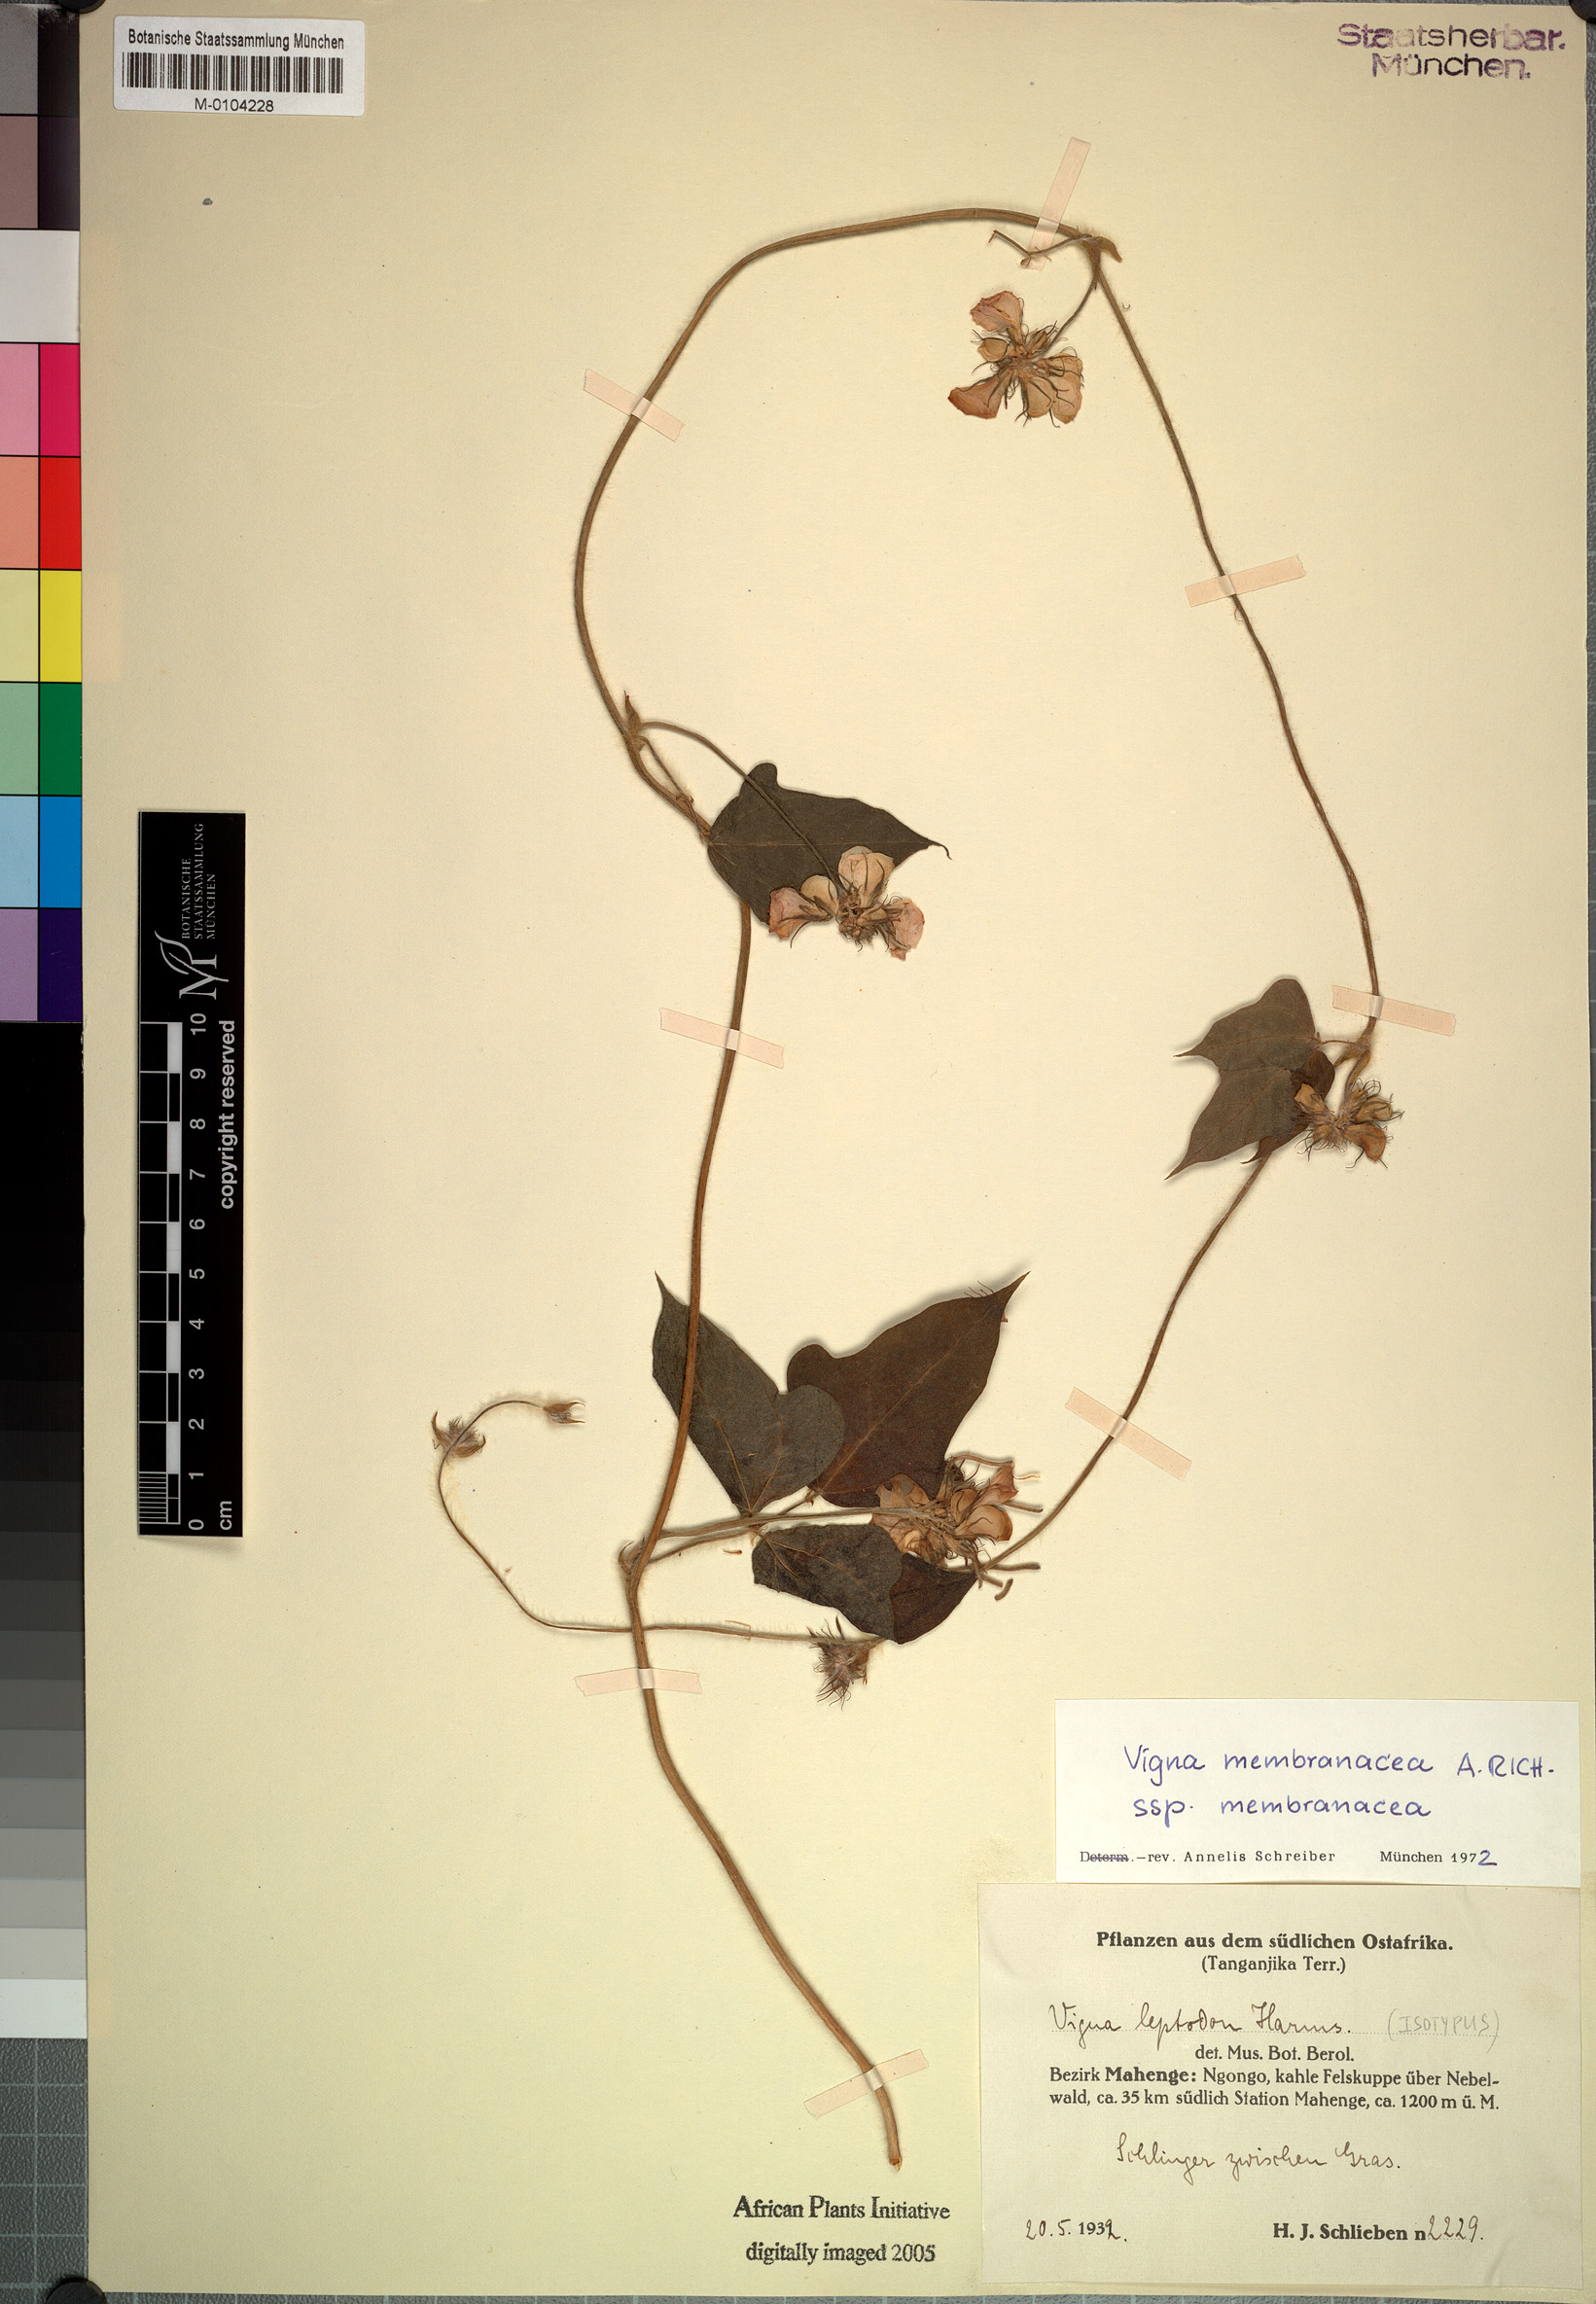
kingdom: Plantae
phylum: Tracheophyta
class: Magnoliopsida
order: Fabales
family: Fabaceae
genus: Vigna
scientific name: Vigna membranacea
